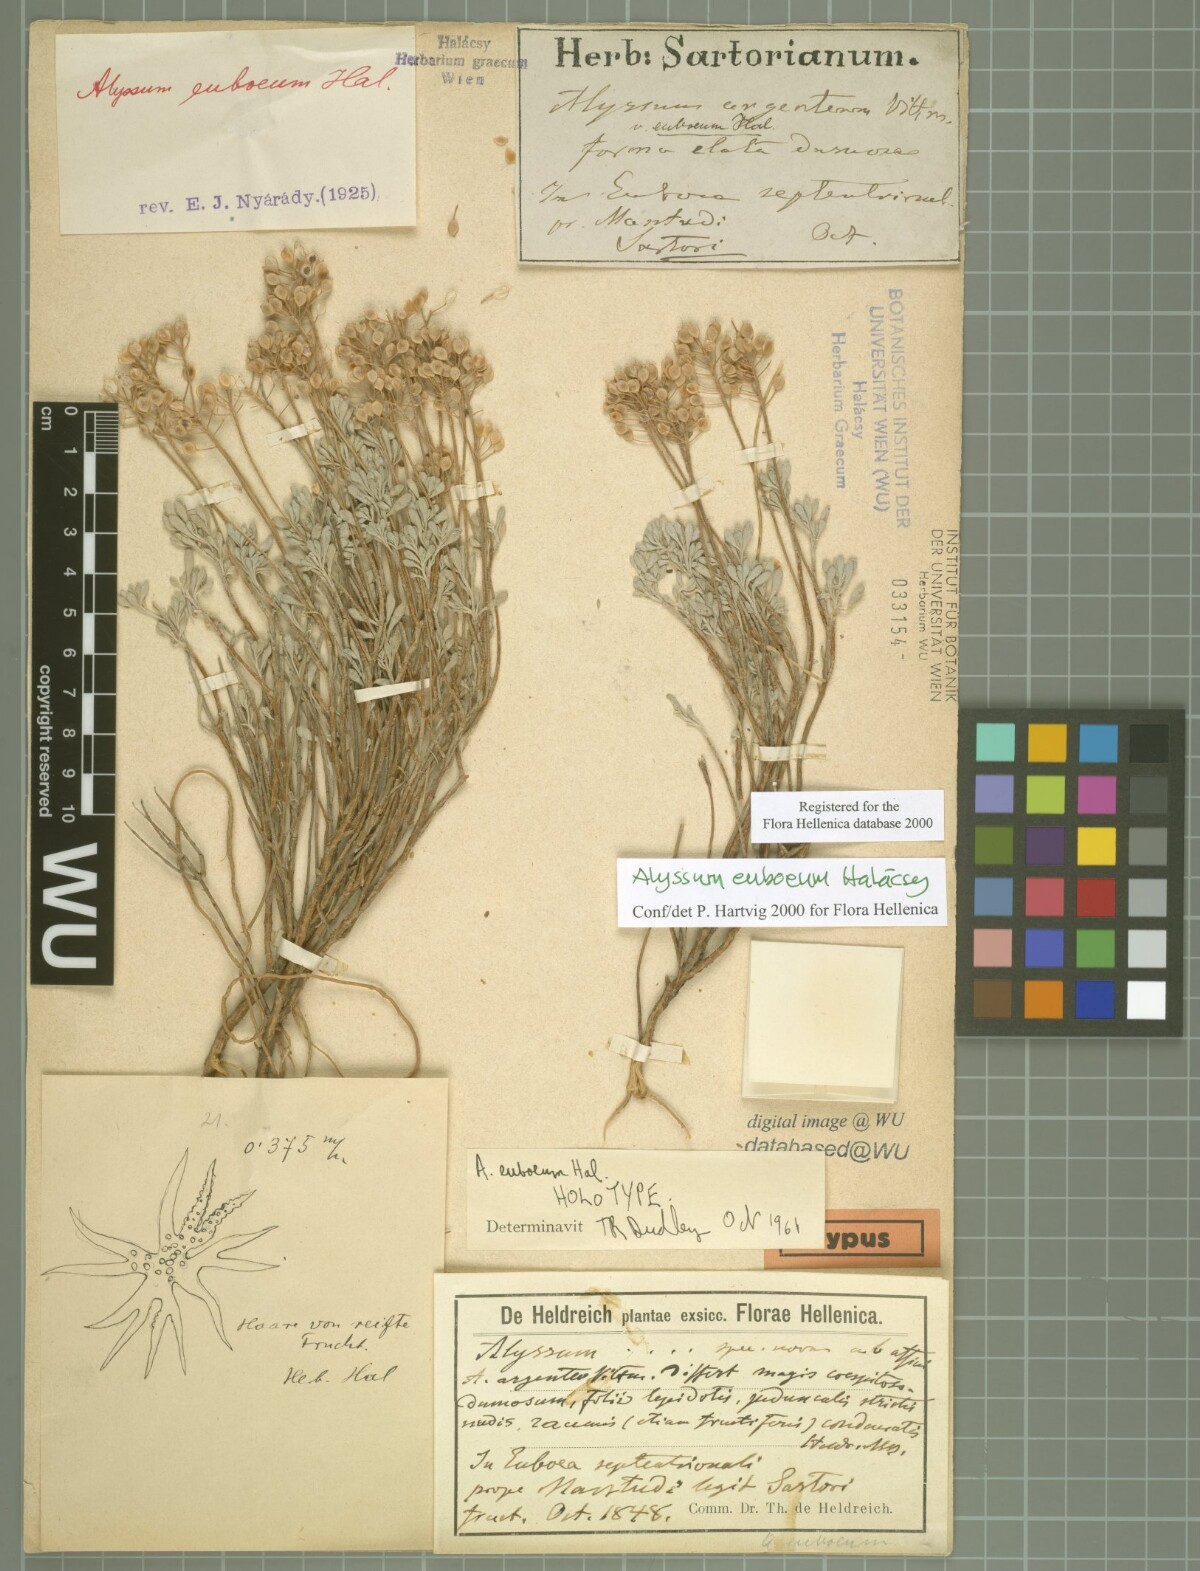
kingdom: Plantae
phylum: Tracheophyta
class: Magnoliopsida
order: Brassicales
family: Brassicaceae
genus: Odontarrhena
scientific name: Odontarrhena euboea
